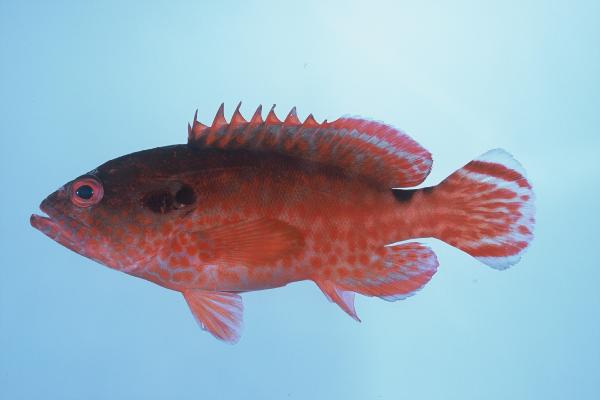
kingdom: Animalia
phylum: Chordata
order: Perciformes
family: Serranidae
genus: Cephalopholis
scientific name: Cephalopholis leopardus
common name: Leopard hind
